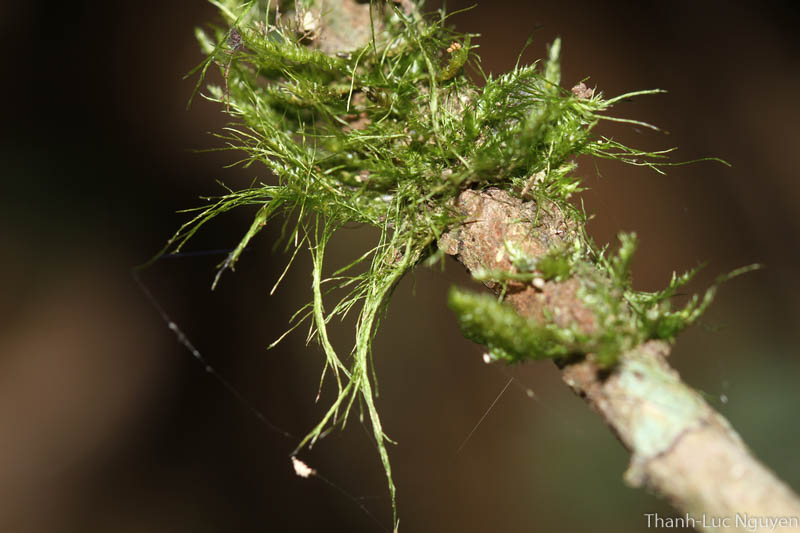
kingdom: Plantae
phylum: Bryophyta
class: Bryopsida
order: Hypnales
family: Pylaisiadelphaceae
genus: Isocladiella
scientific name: Isocladiella surcularis
